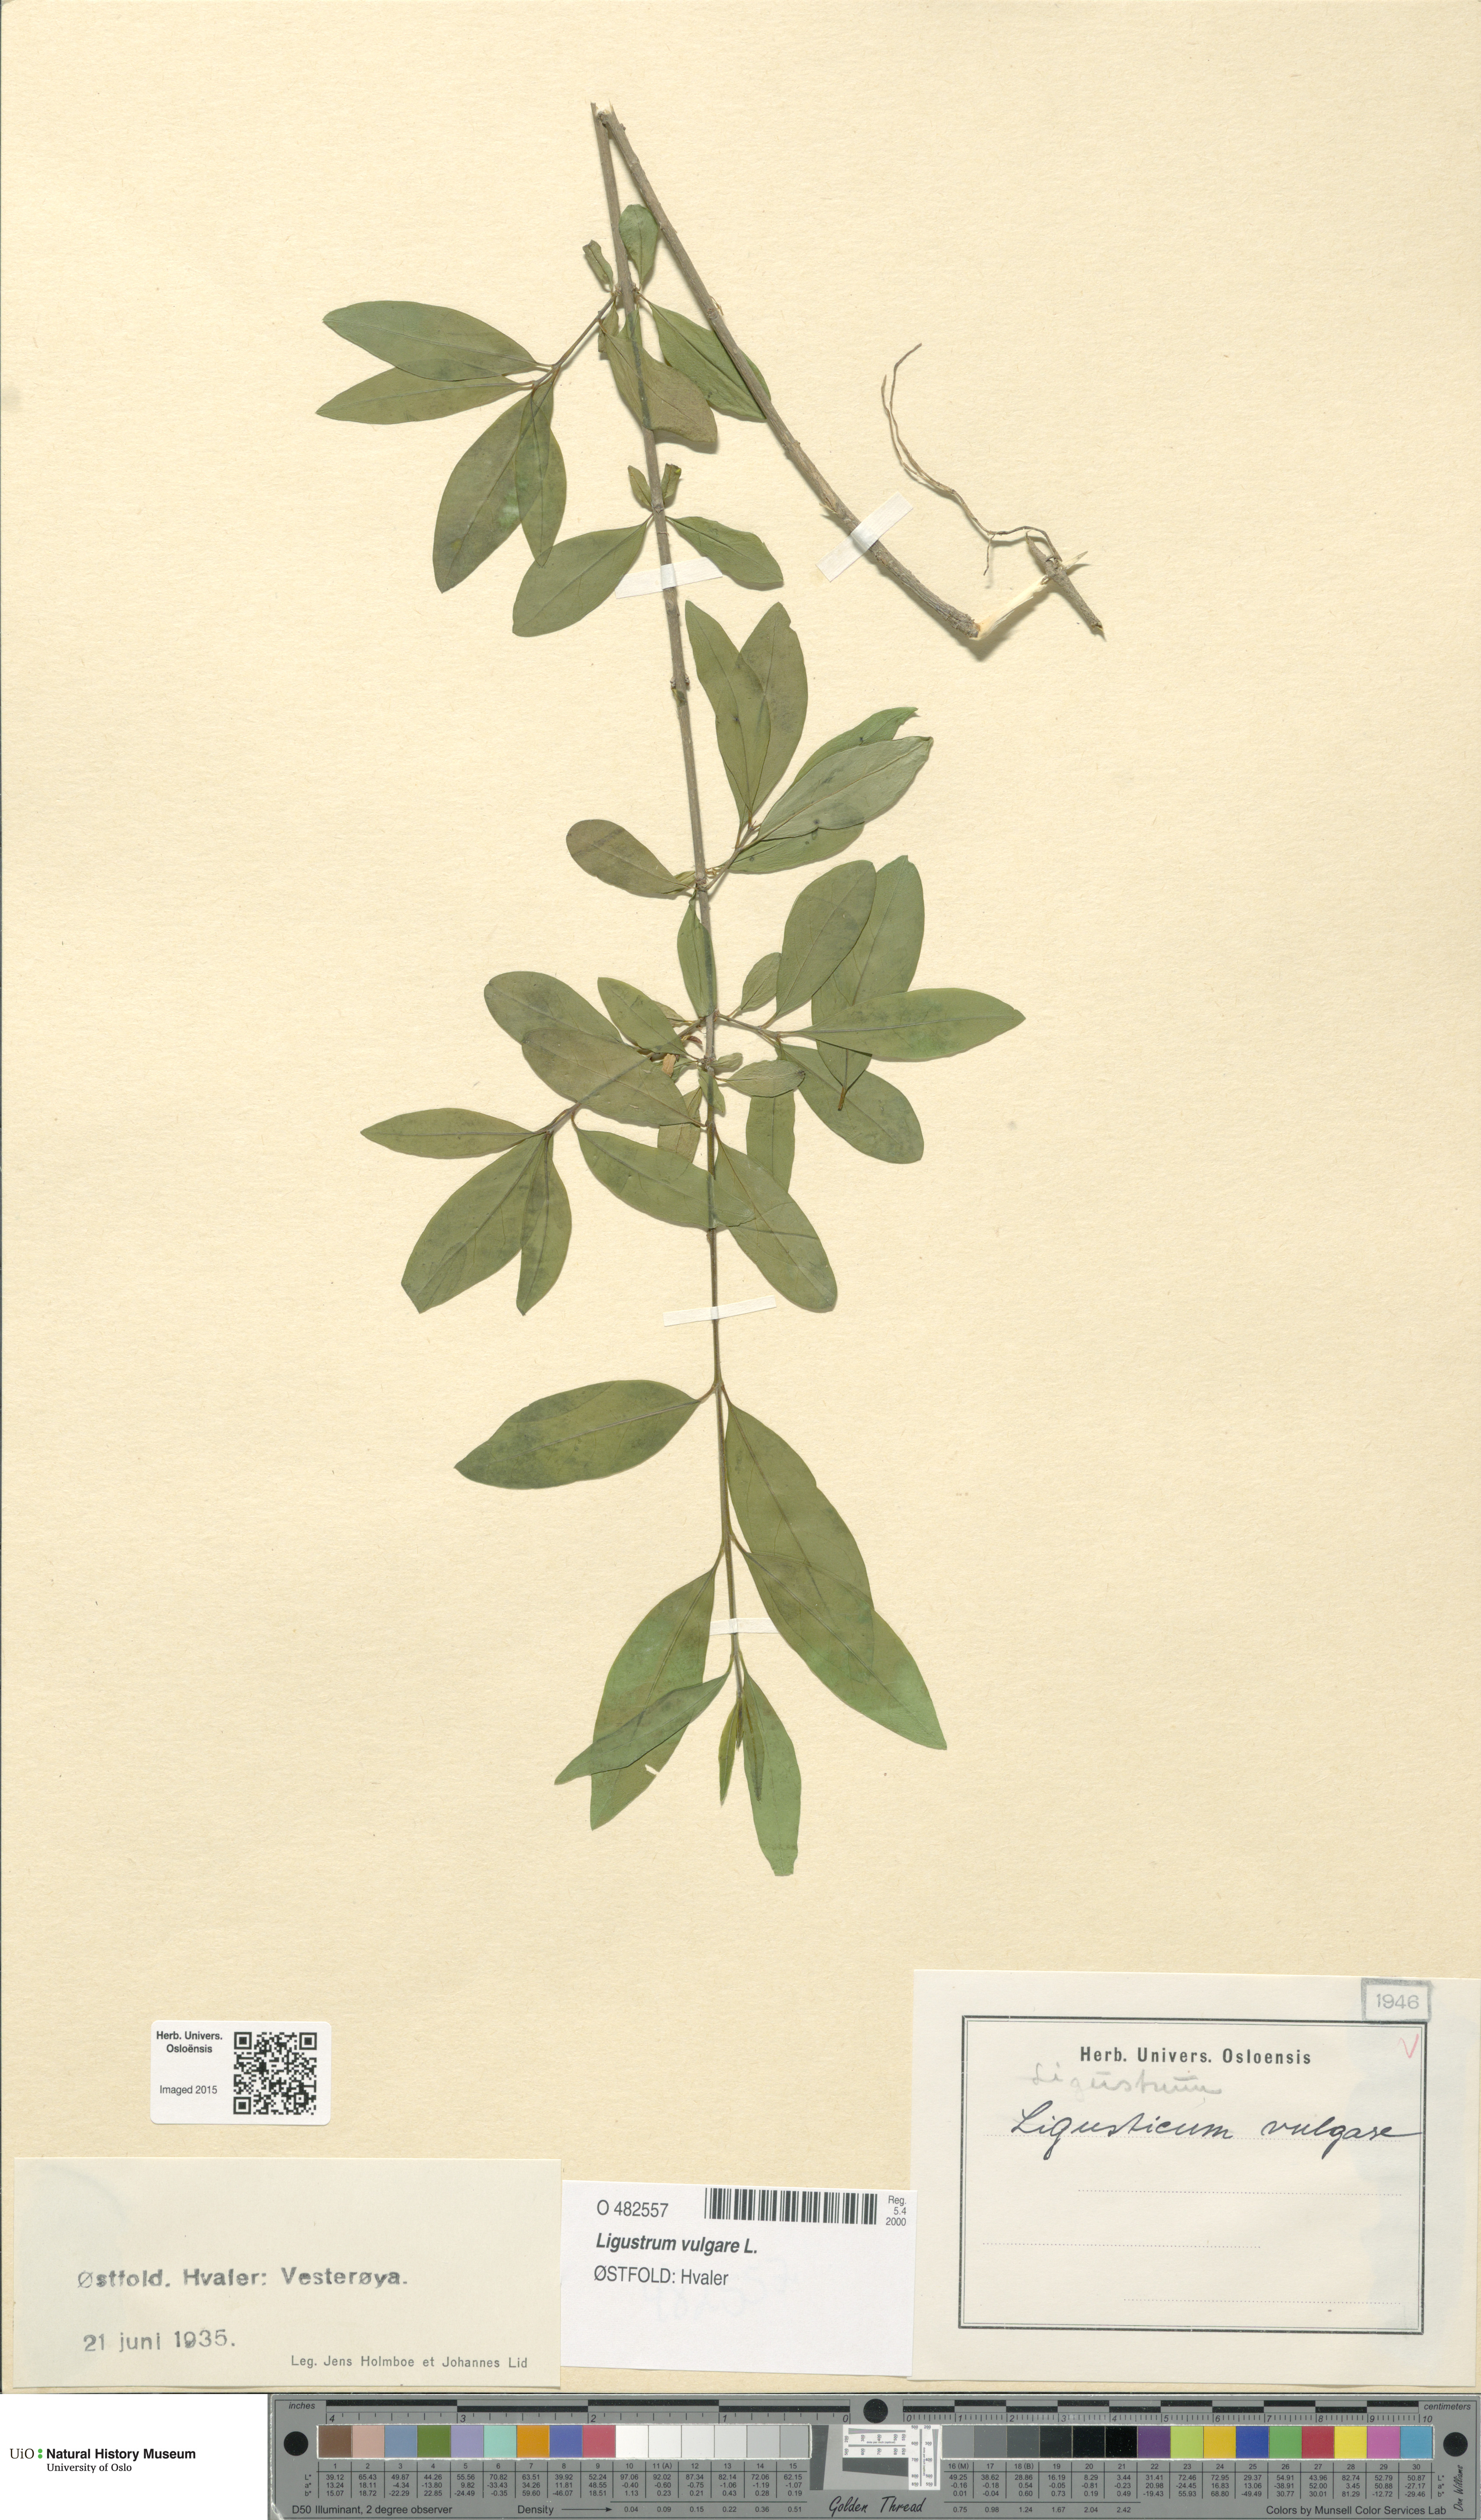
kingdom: Plantae
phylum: Tracheophyta
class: Magnoliopsida
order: Lamiales
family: Oleaceae
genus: Ligustrum
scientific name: Ligustrum vulgare
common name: Wild privet
